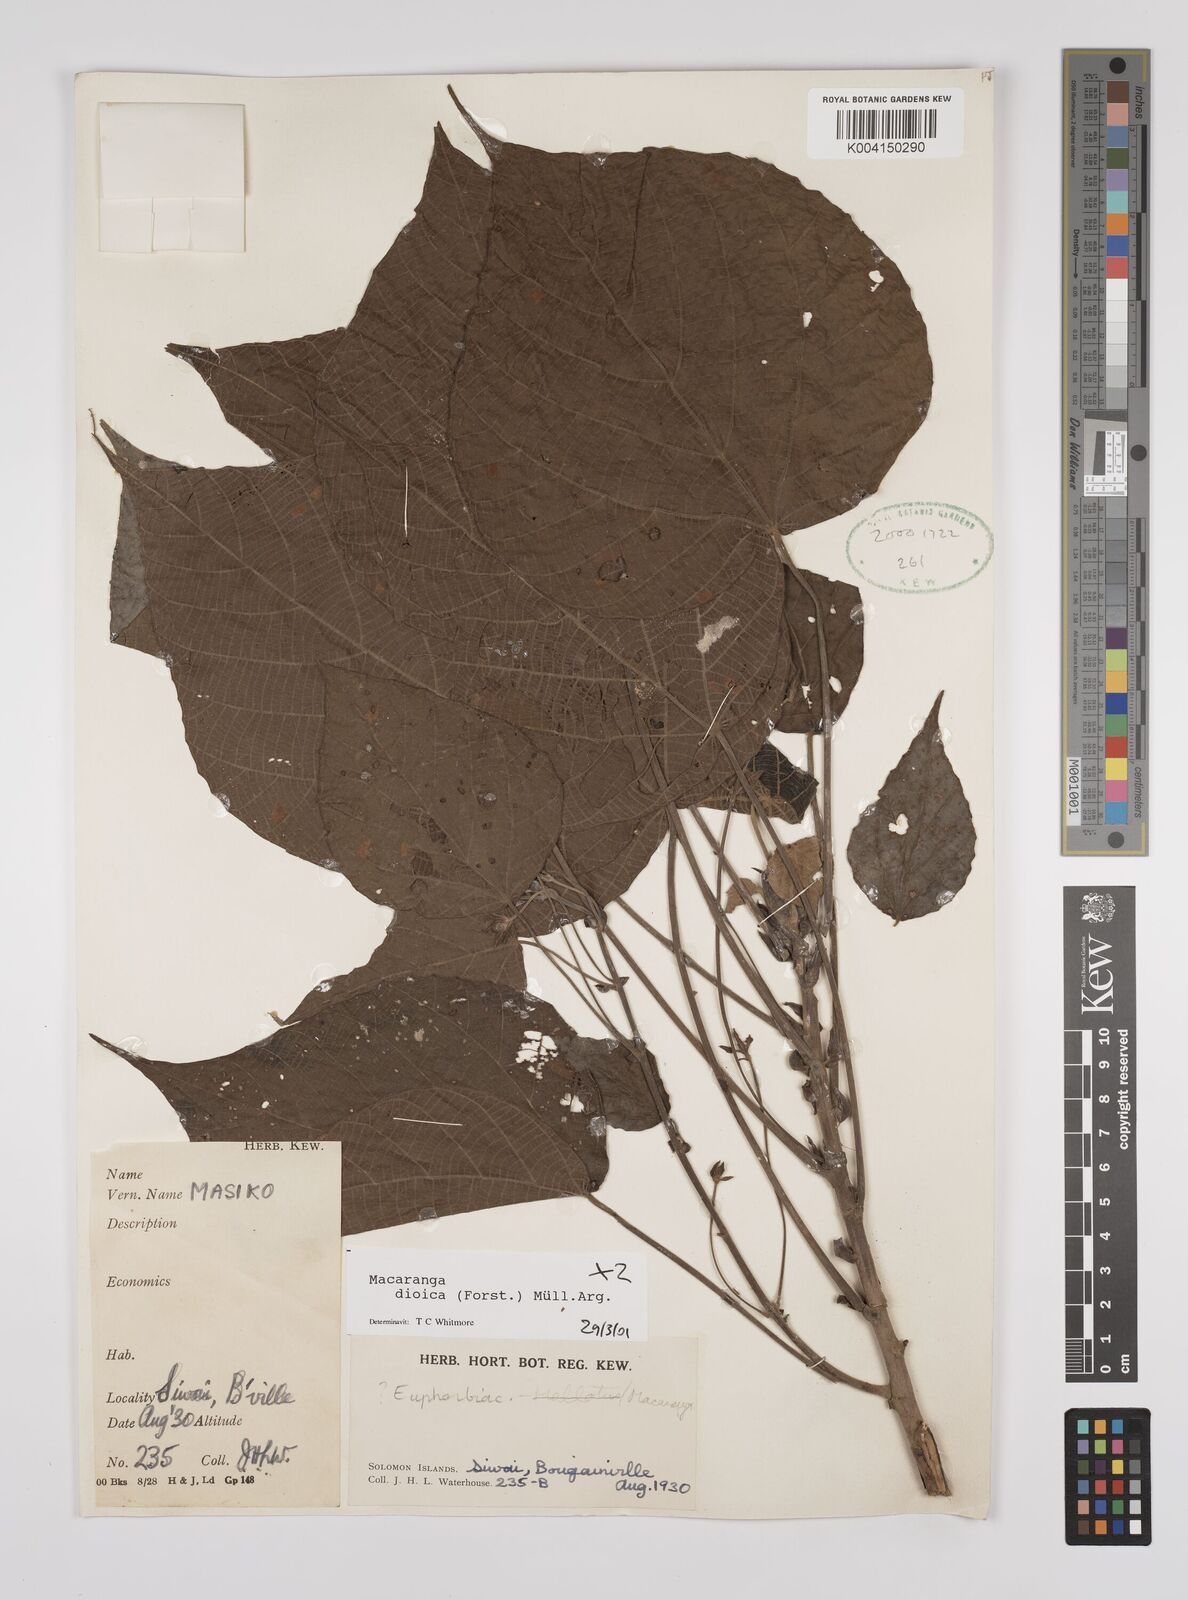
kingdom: Plantae
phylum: Tracheophyta
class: Magnoliopsida
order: Malpighiales
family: Euphorbiaceae
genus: Macaranga
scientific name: Macaranga dioica
